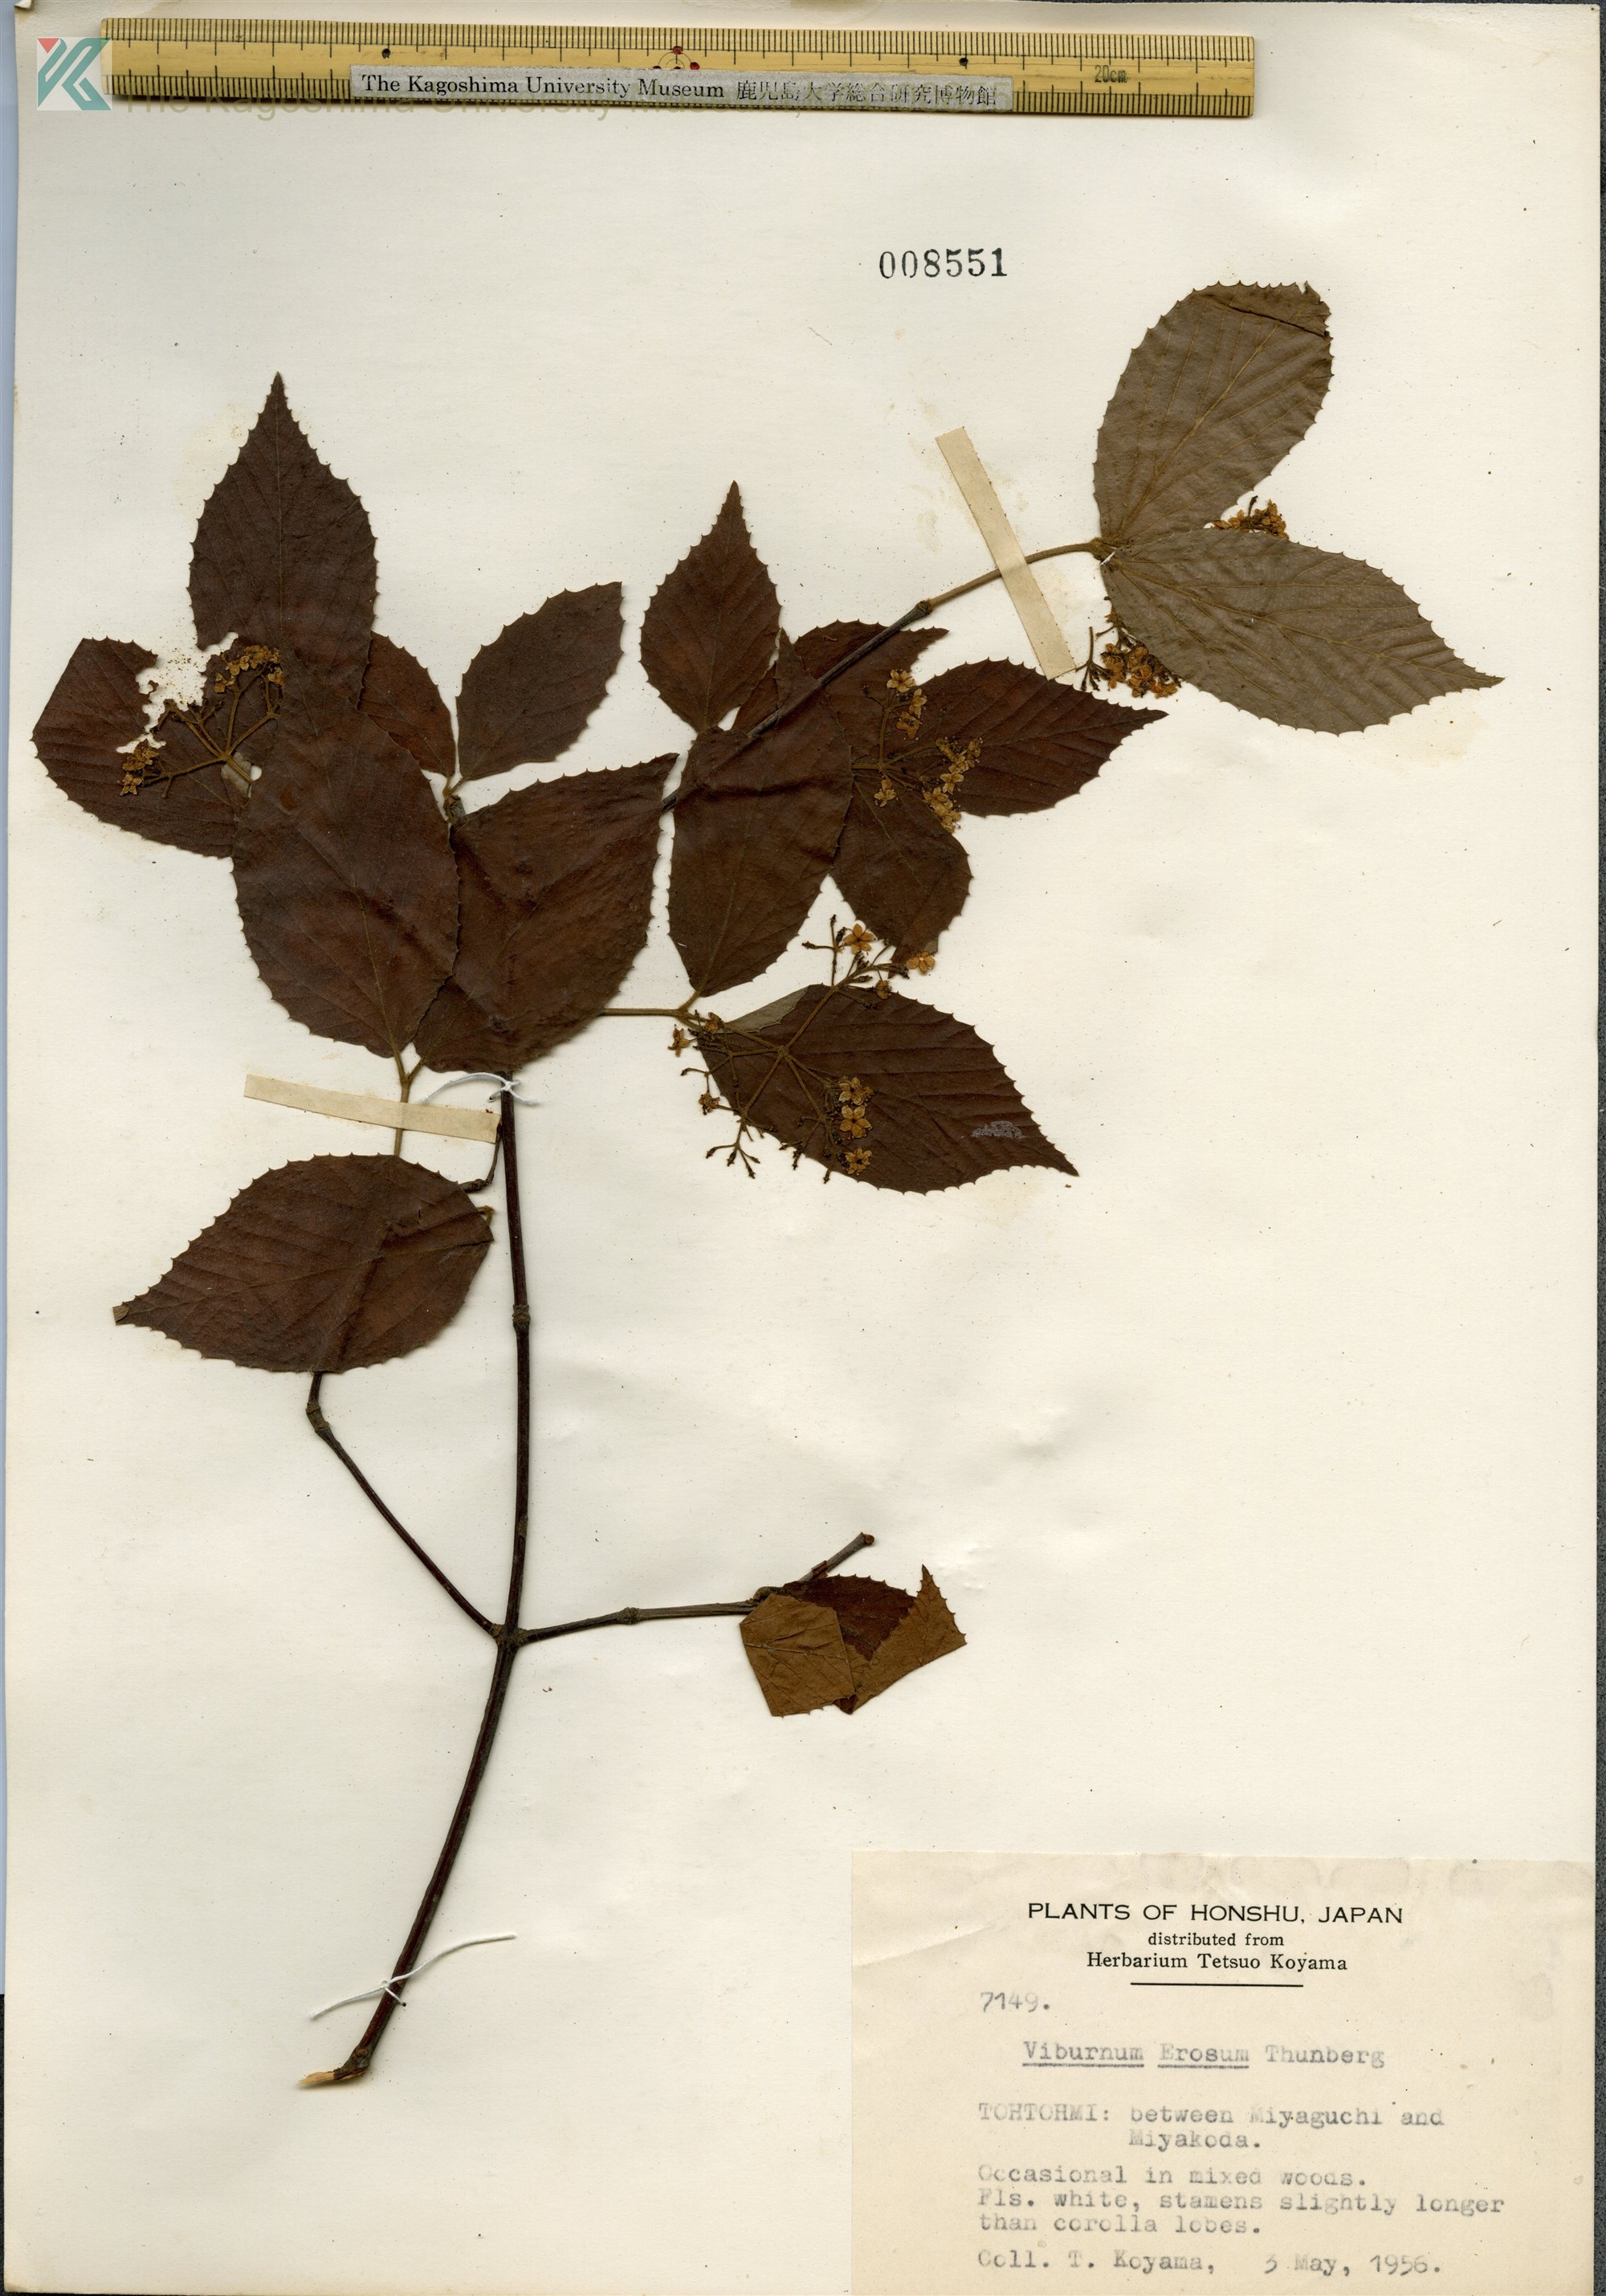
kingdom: Plantae
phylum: Tracheophyta
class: Magnoliopsida
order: Dipsacales
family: Viburnaceae
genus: Viburnum
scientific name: Viburnum erosum
